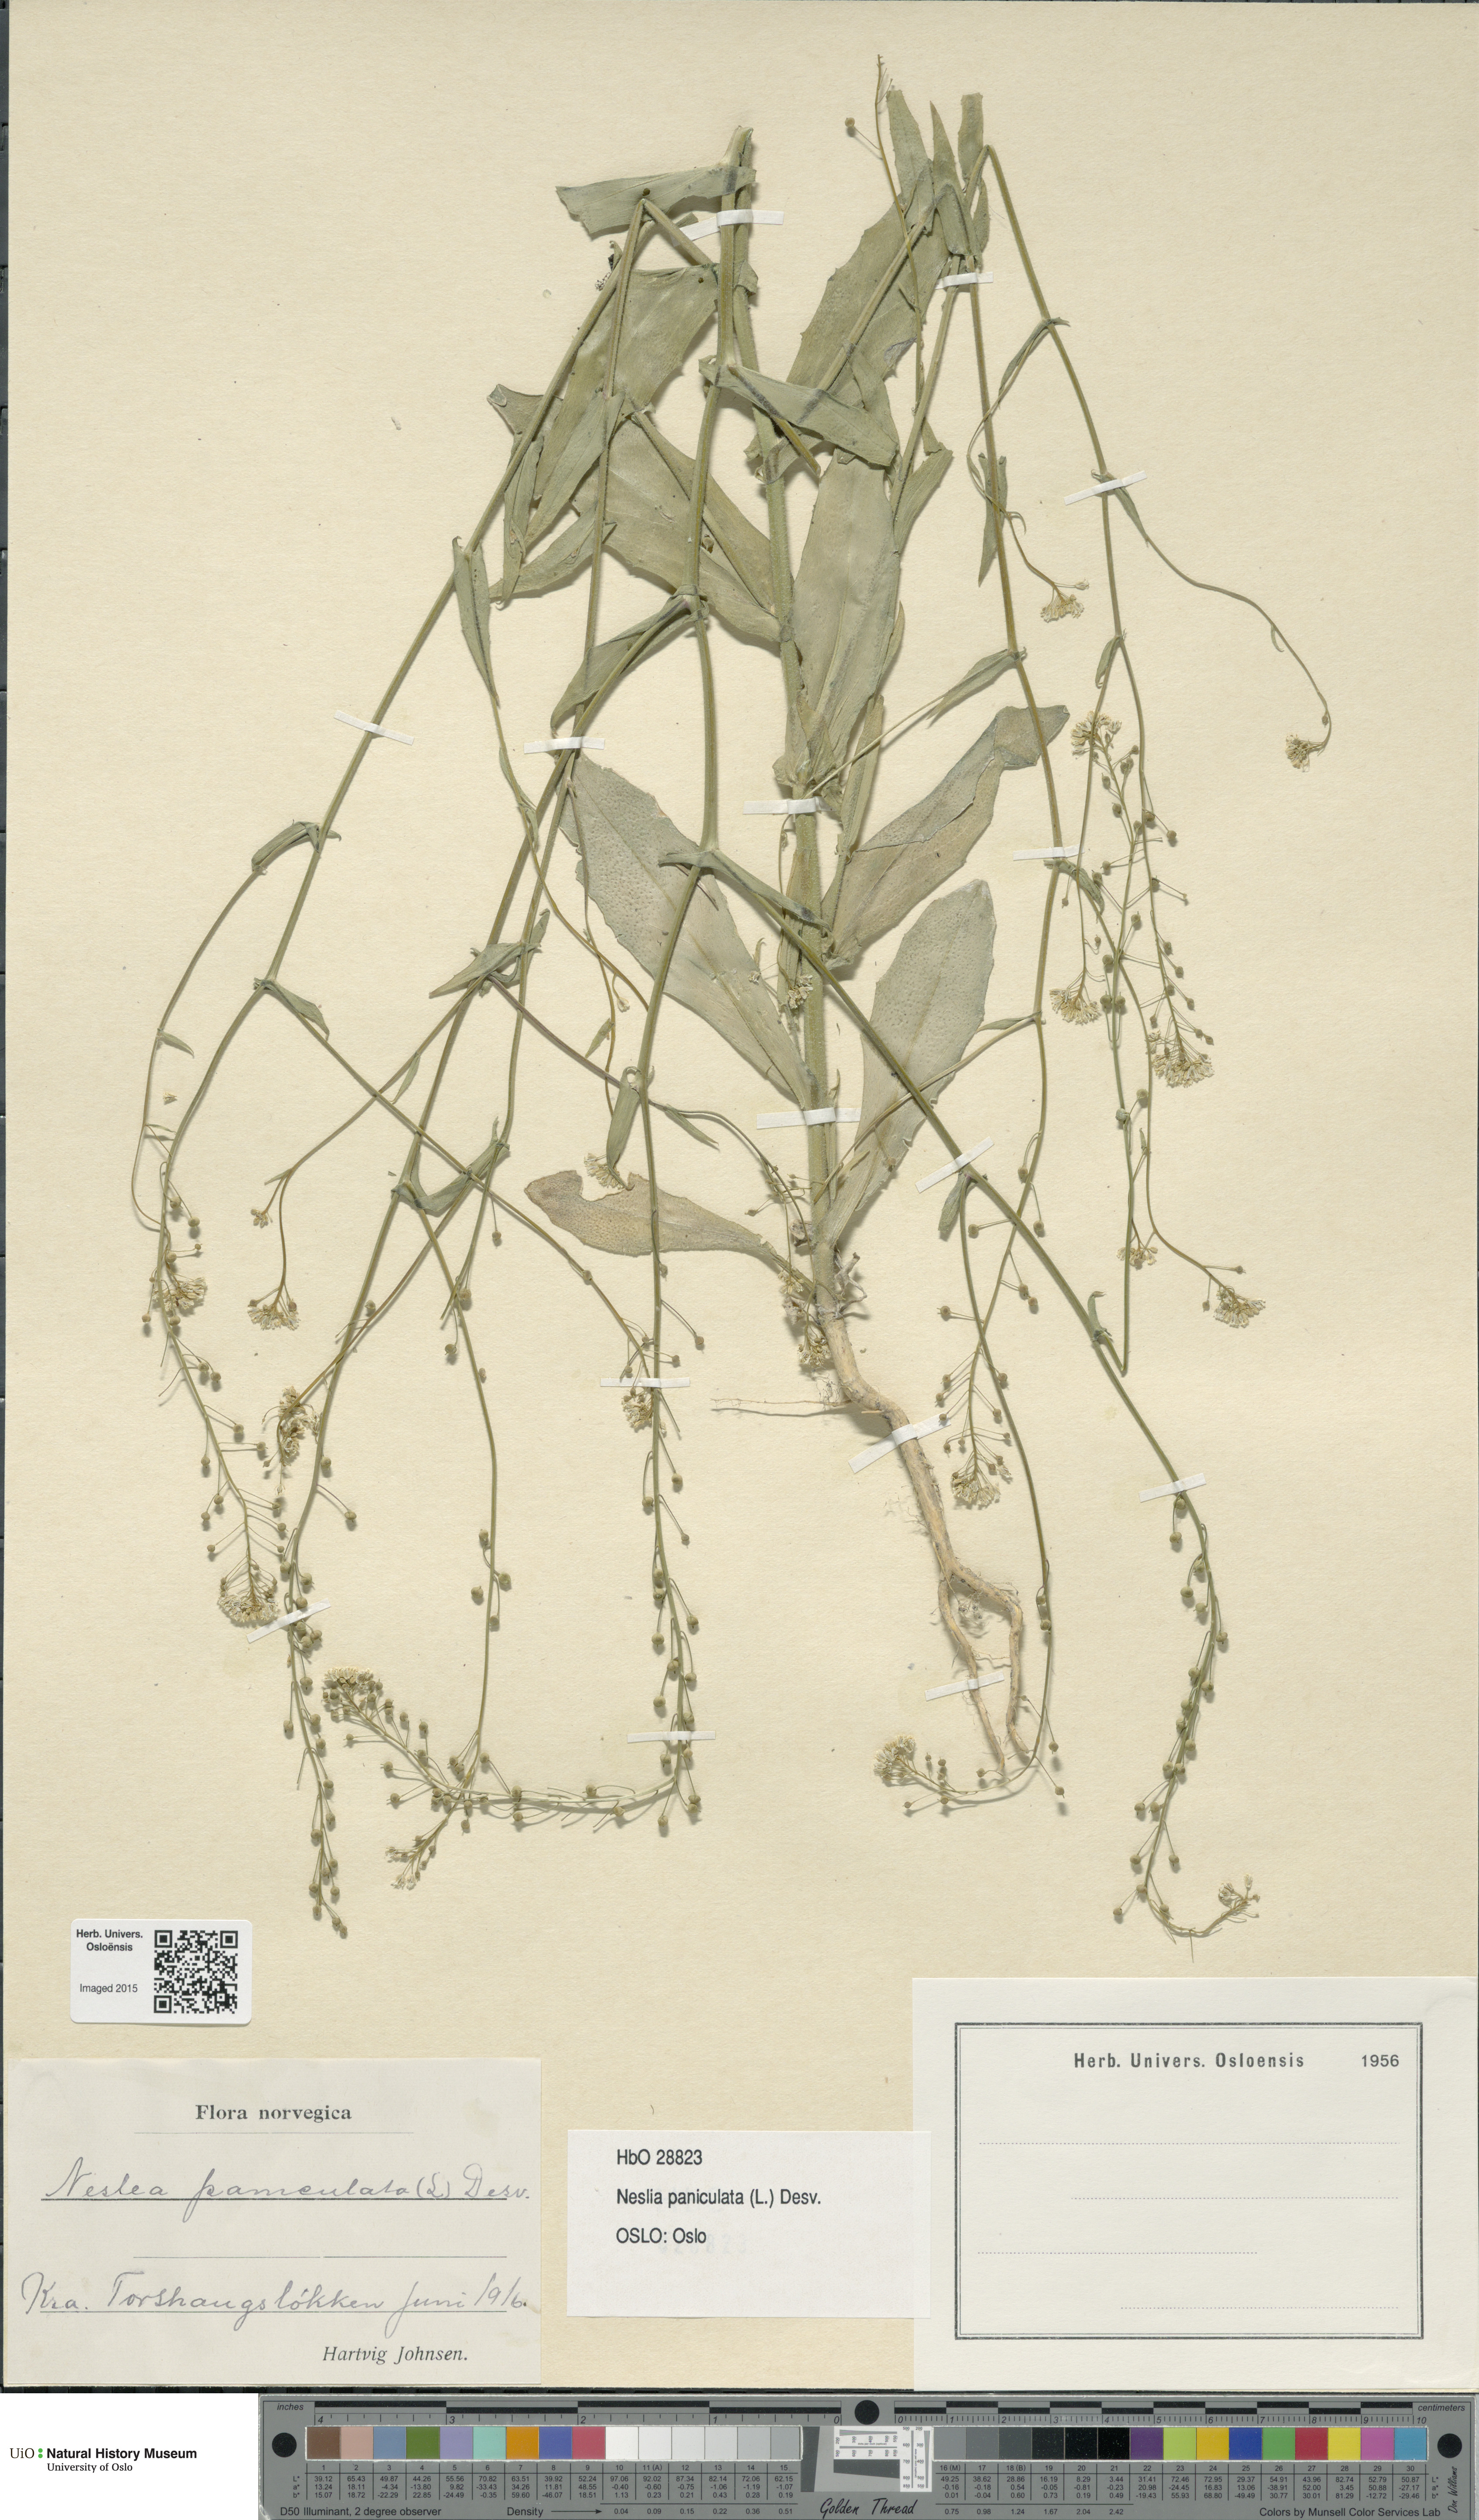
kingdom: Plantae
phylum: Tracheophyta
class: Magnoliopsida
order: Brassicales
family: Brassicaceae
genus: Neslia
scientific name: Neslia paniculata
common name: Ball mustard
